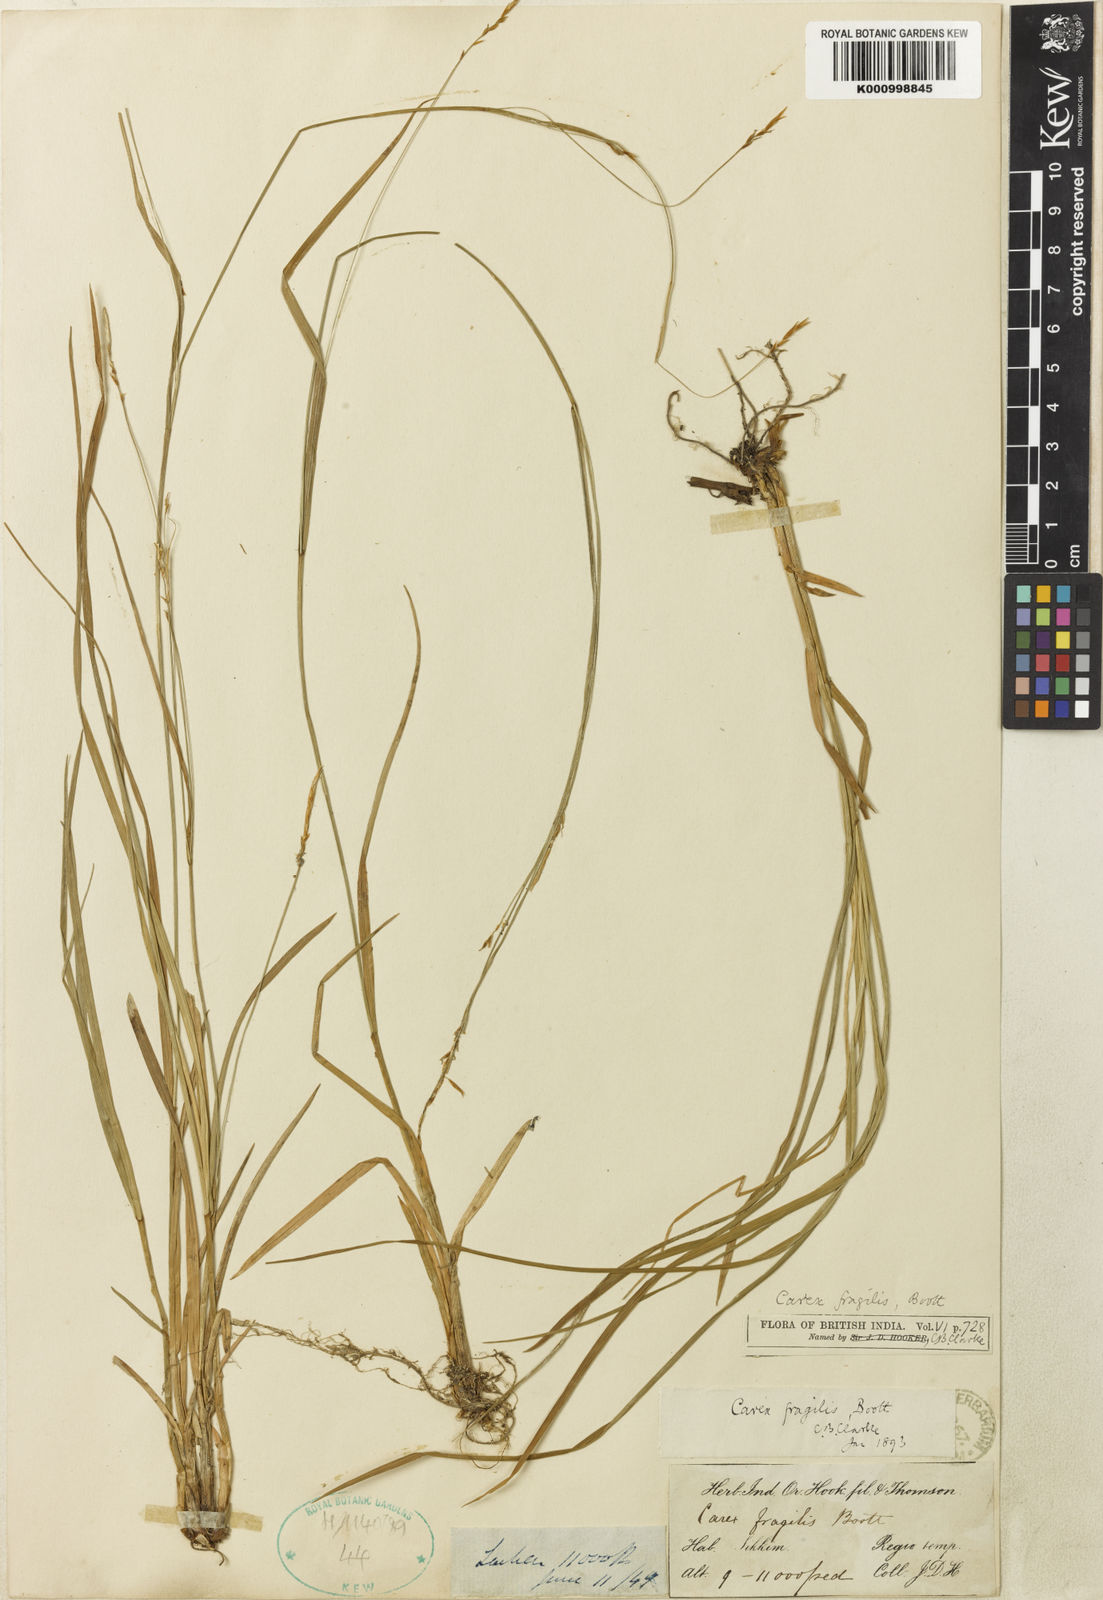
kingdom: Plantae
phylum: Tracheophyta
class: Liliopsida
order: Poales
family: Cyperaceae
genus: Carex
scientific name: Carex fragilis
